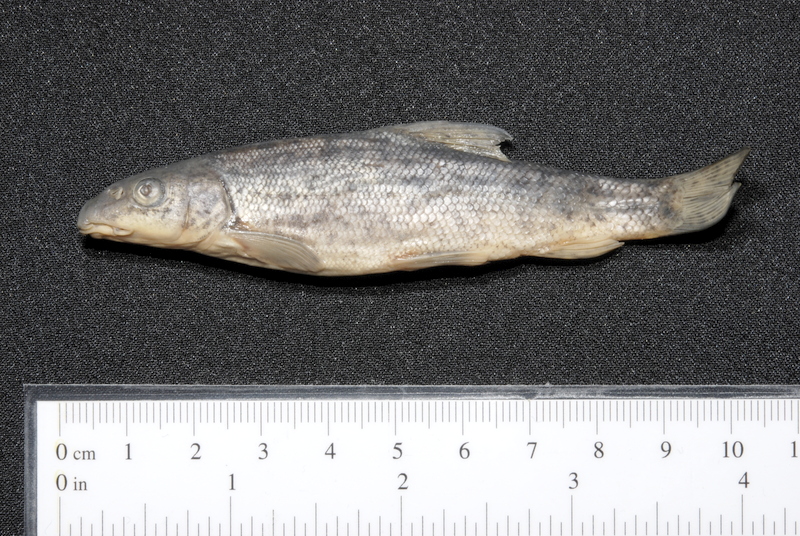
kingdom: Animalia
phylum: Chordata
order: Cypriniformes
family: Cyprinidae
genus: Barbus
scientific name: Barbus barbus
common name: Barbel
